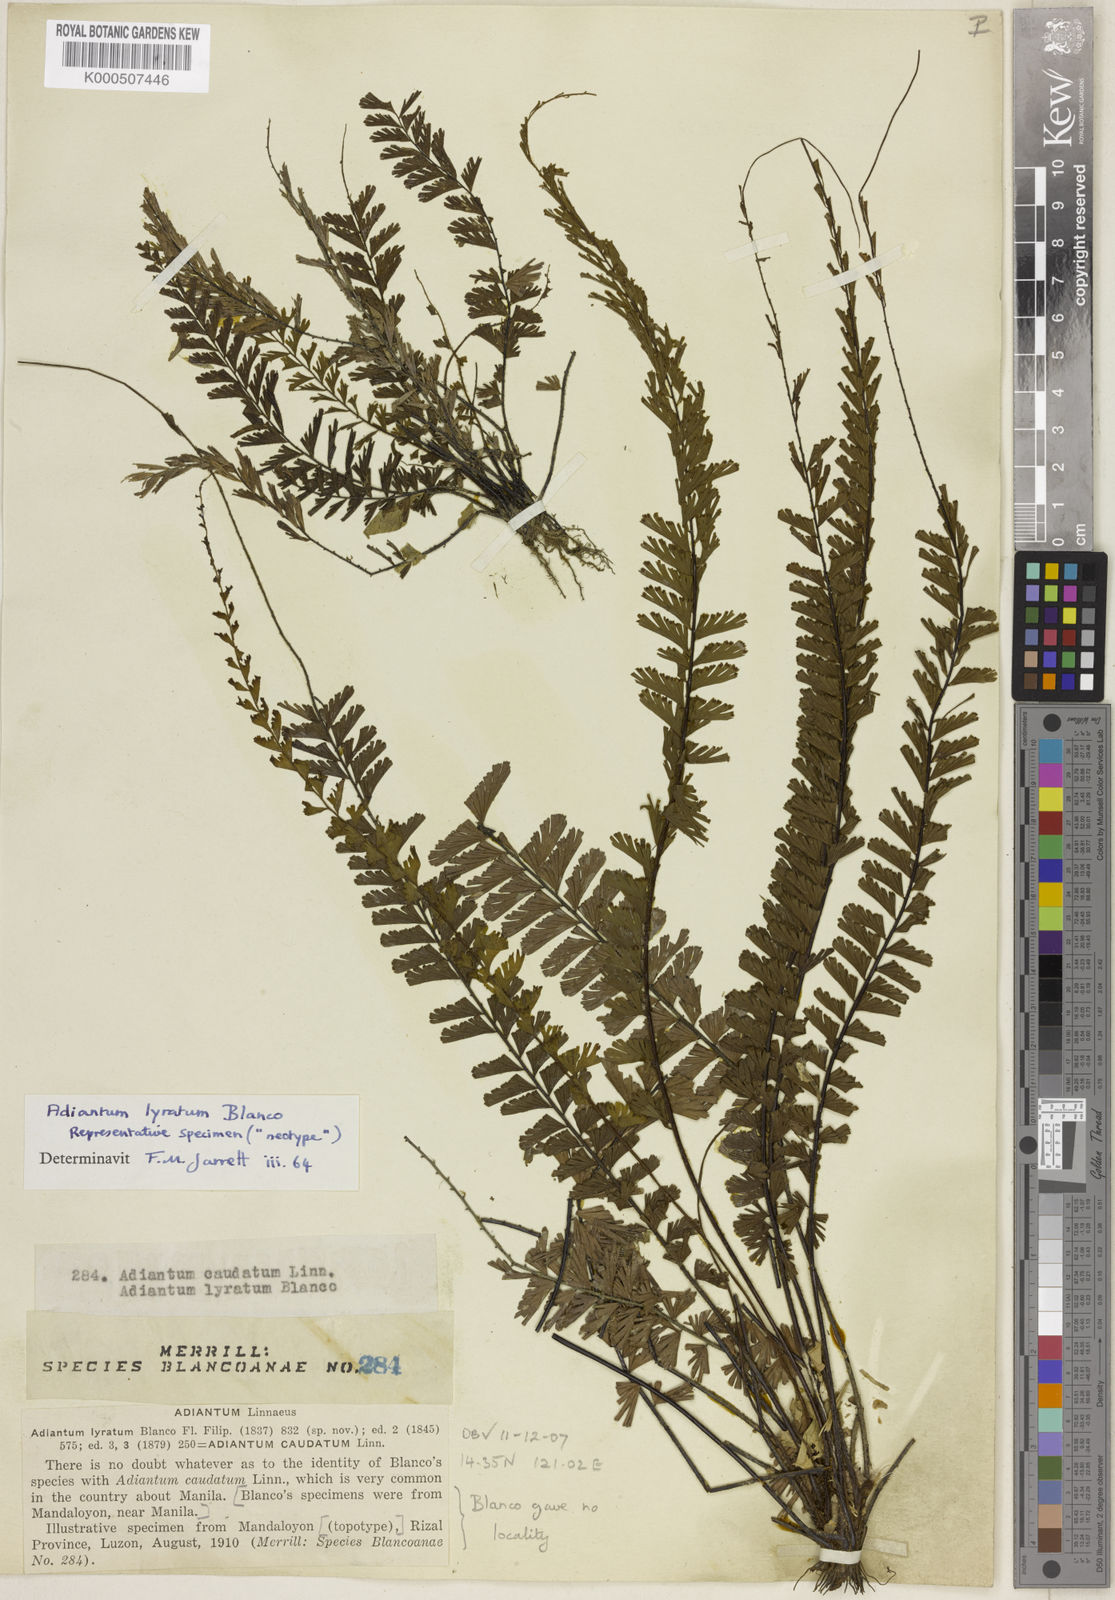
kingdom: Plantae
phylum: Tracheophyta
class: Polypodiopsida
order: Polypodiales
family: Pteridaceae
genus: Adiantum
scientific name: Adiantum caudatum
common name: Tailed maidenhair
